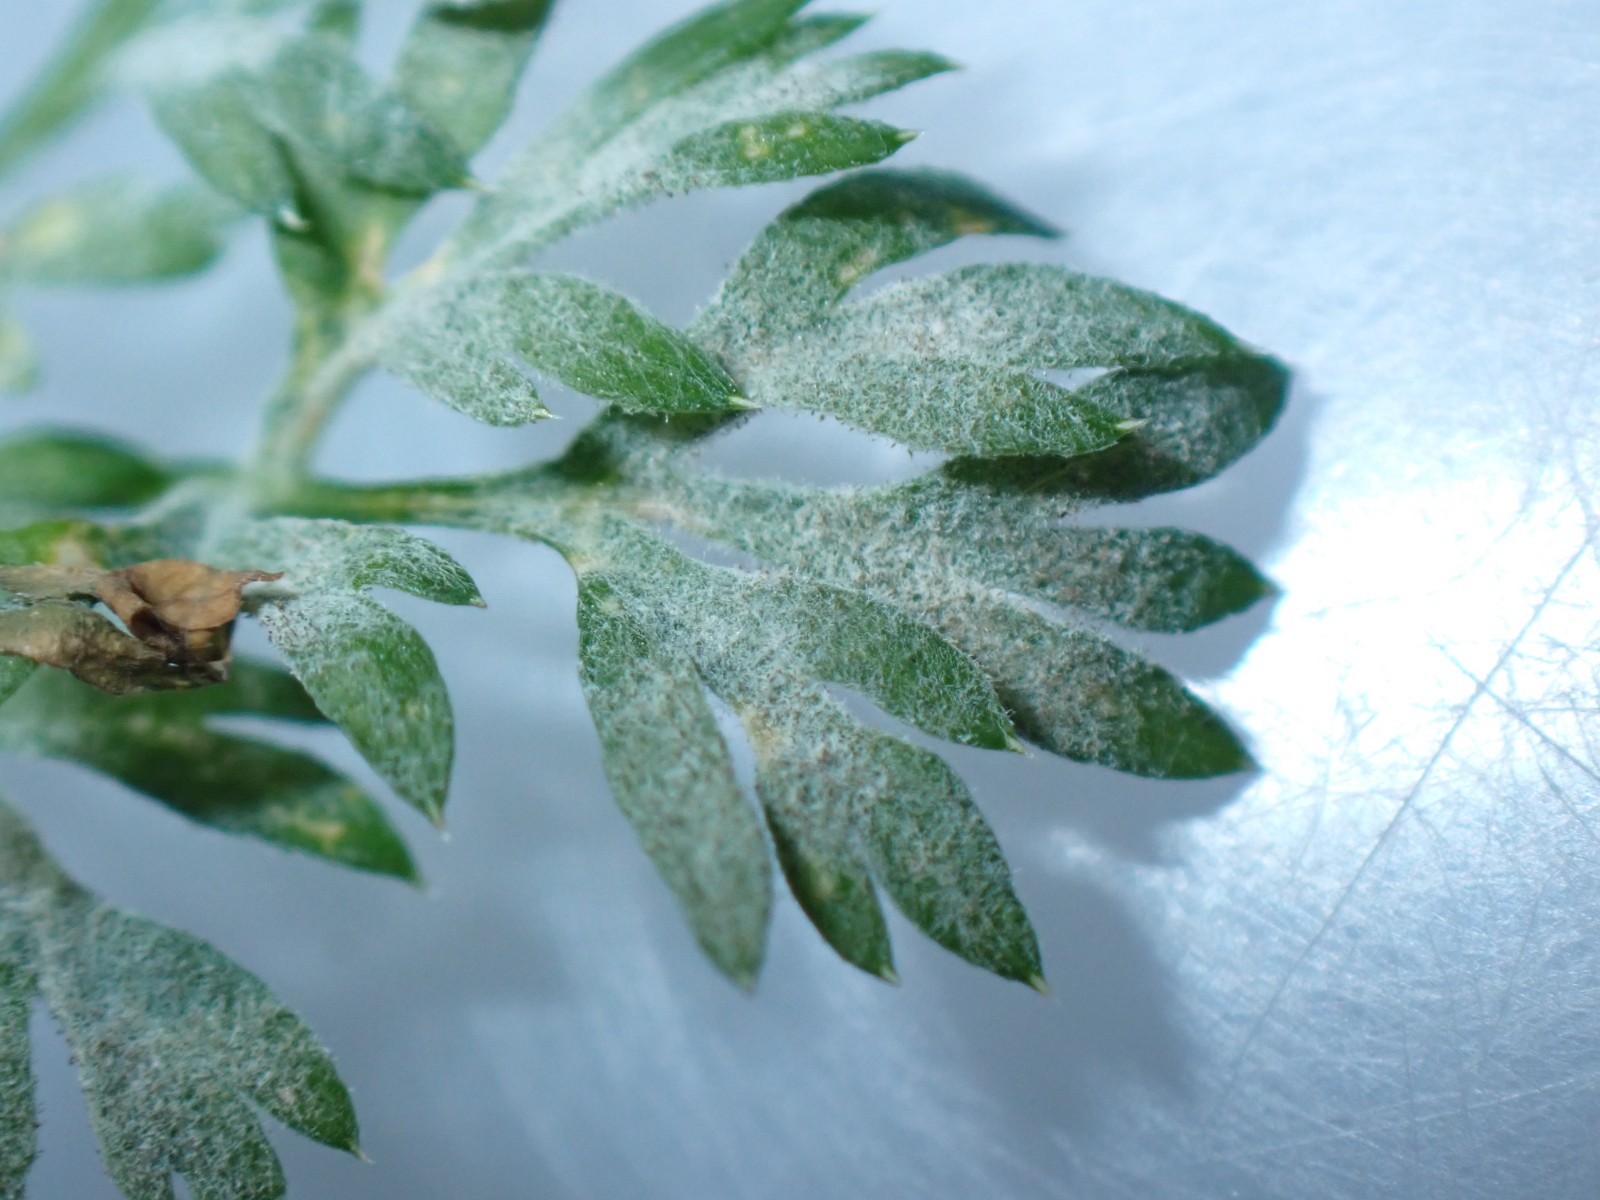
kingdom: Fungi
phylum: Ascomycota
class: Leotiomycetes
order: Helotiales
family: Erysiphaceae
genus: Erysiphe
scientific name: Erysiphe heraclei
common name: skærmplante-meldug
